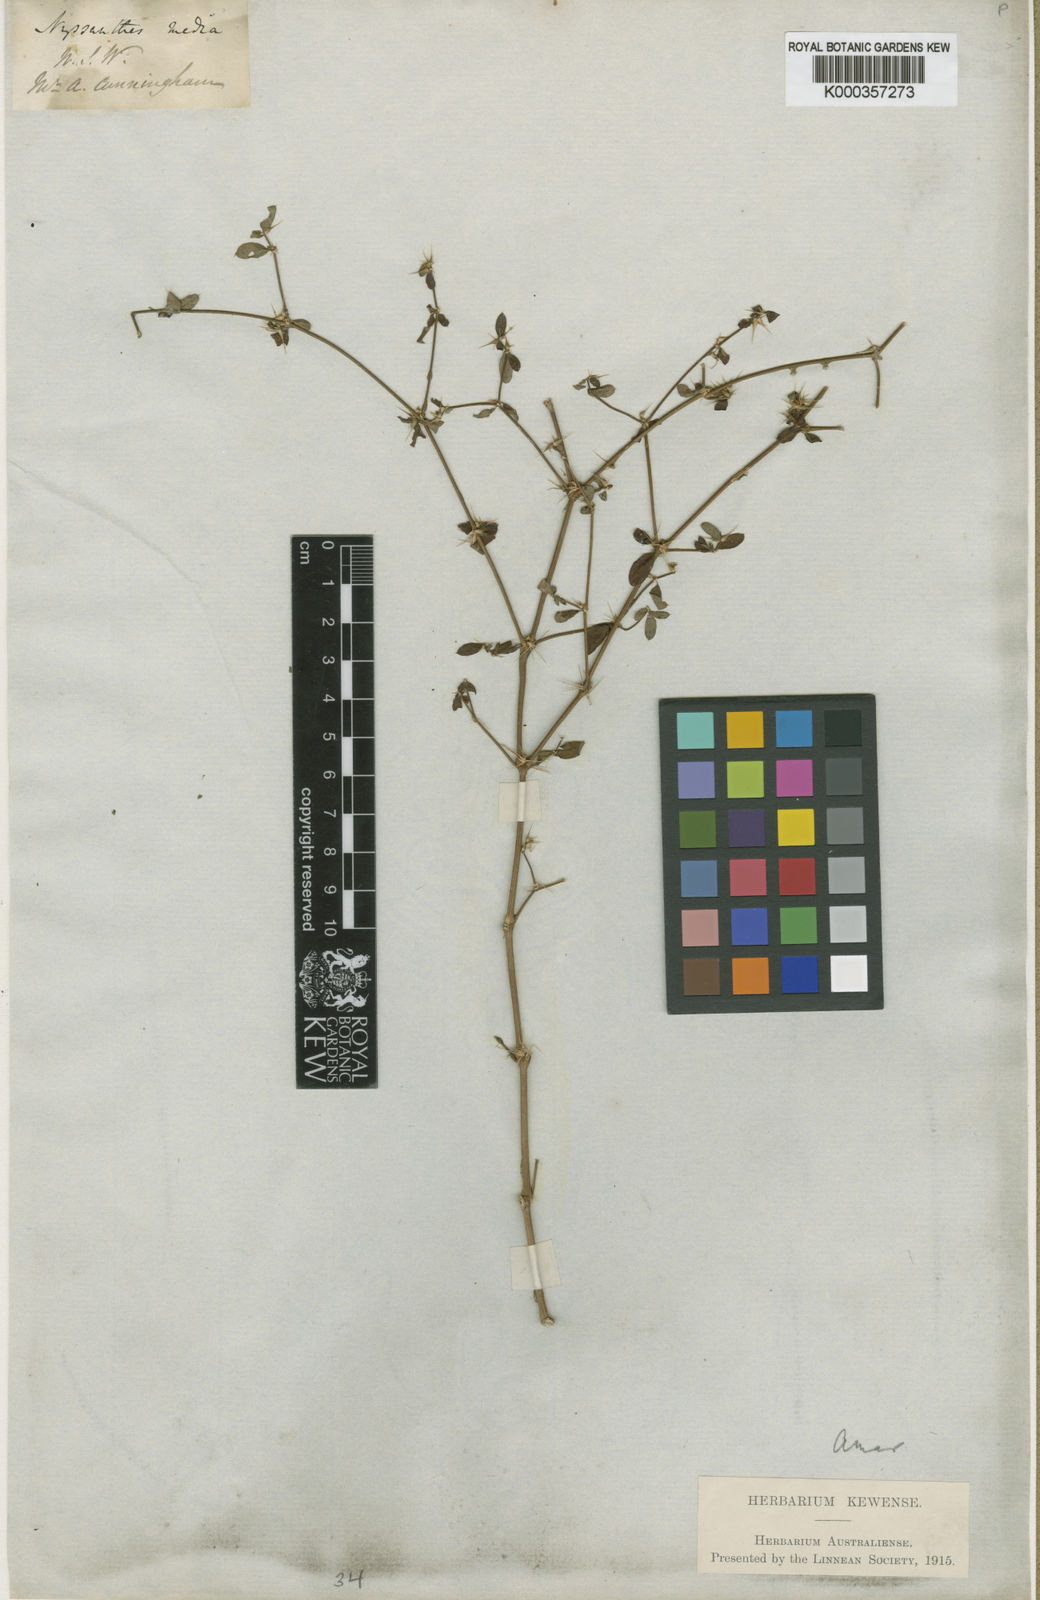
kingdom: Plantae
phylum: Tracheophyta
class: Magnoliopsida
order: Caryophyllales
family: Amaranthaceae
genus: Nyssanthes
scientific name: Nyssanthes diffusa
